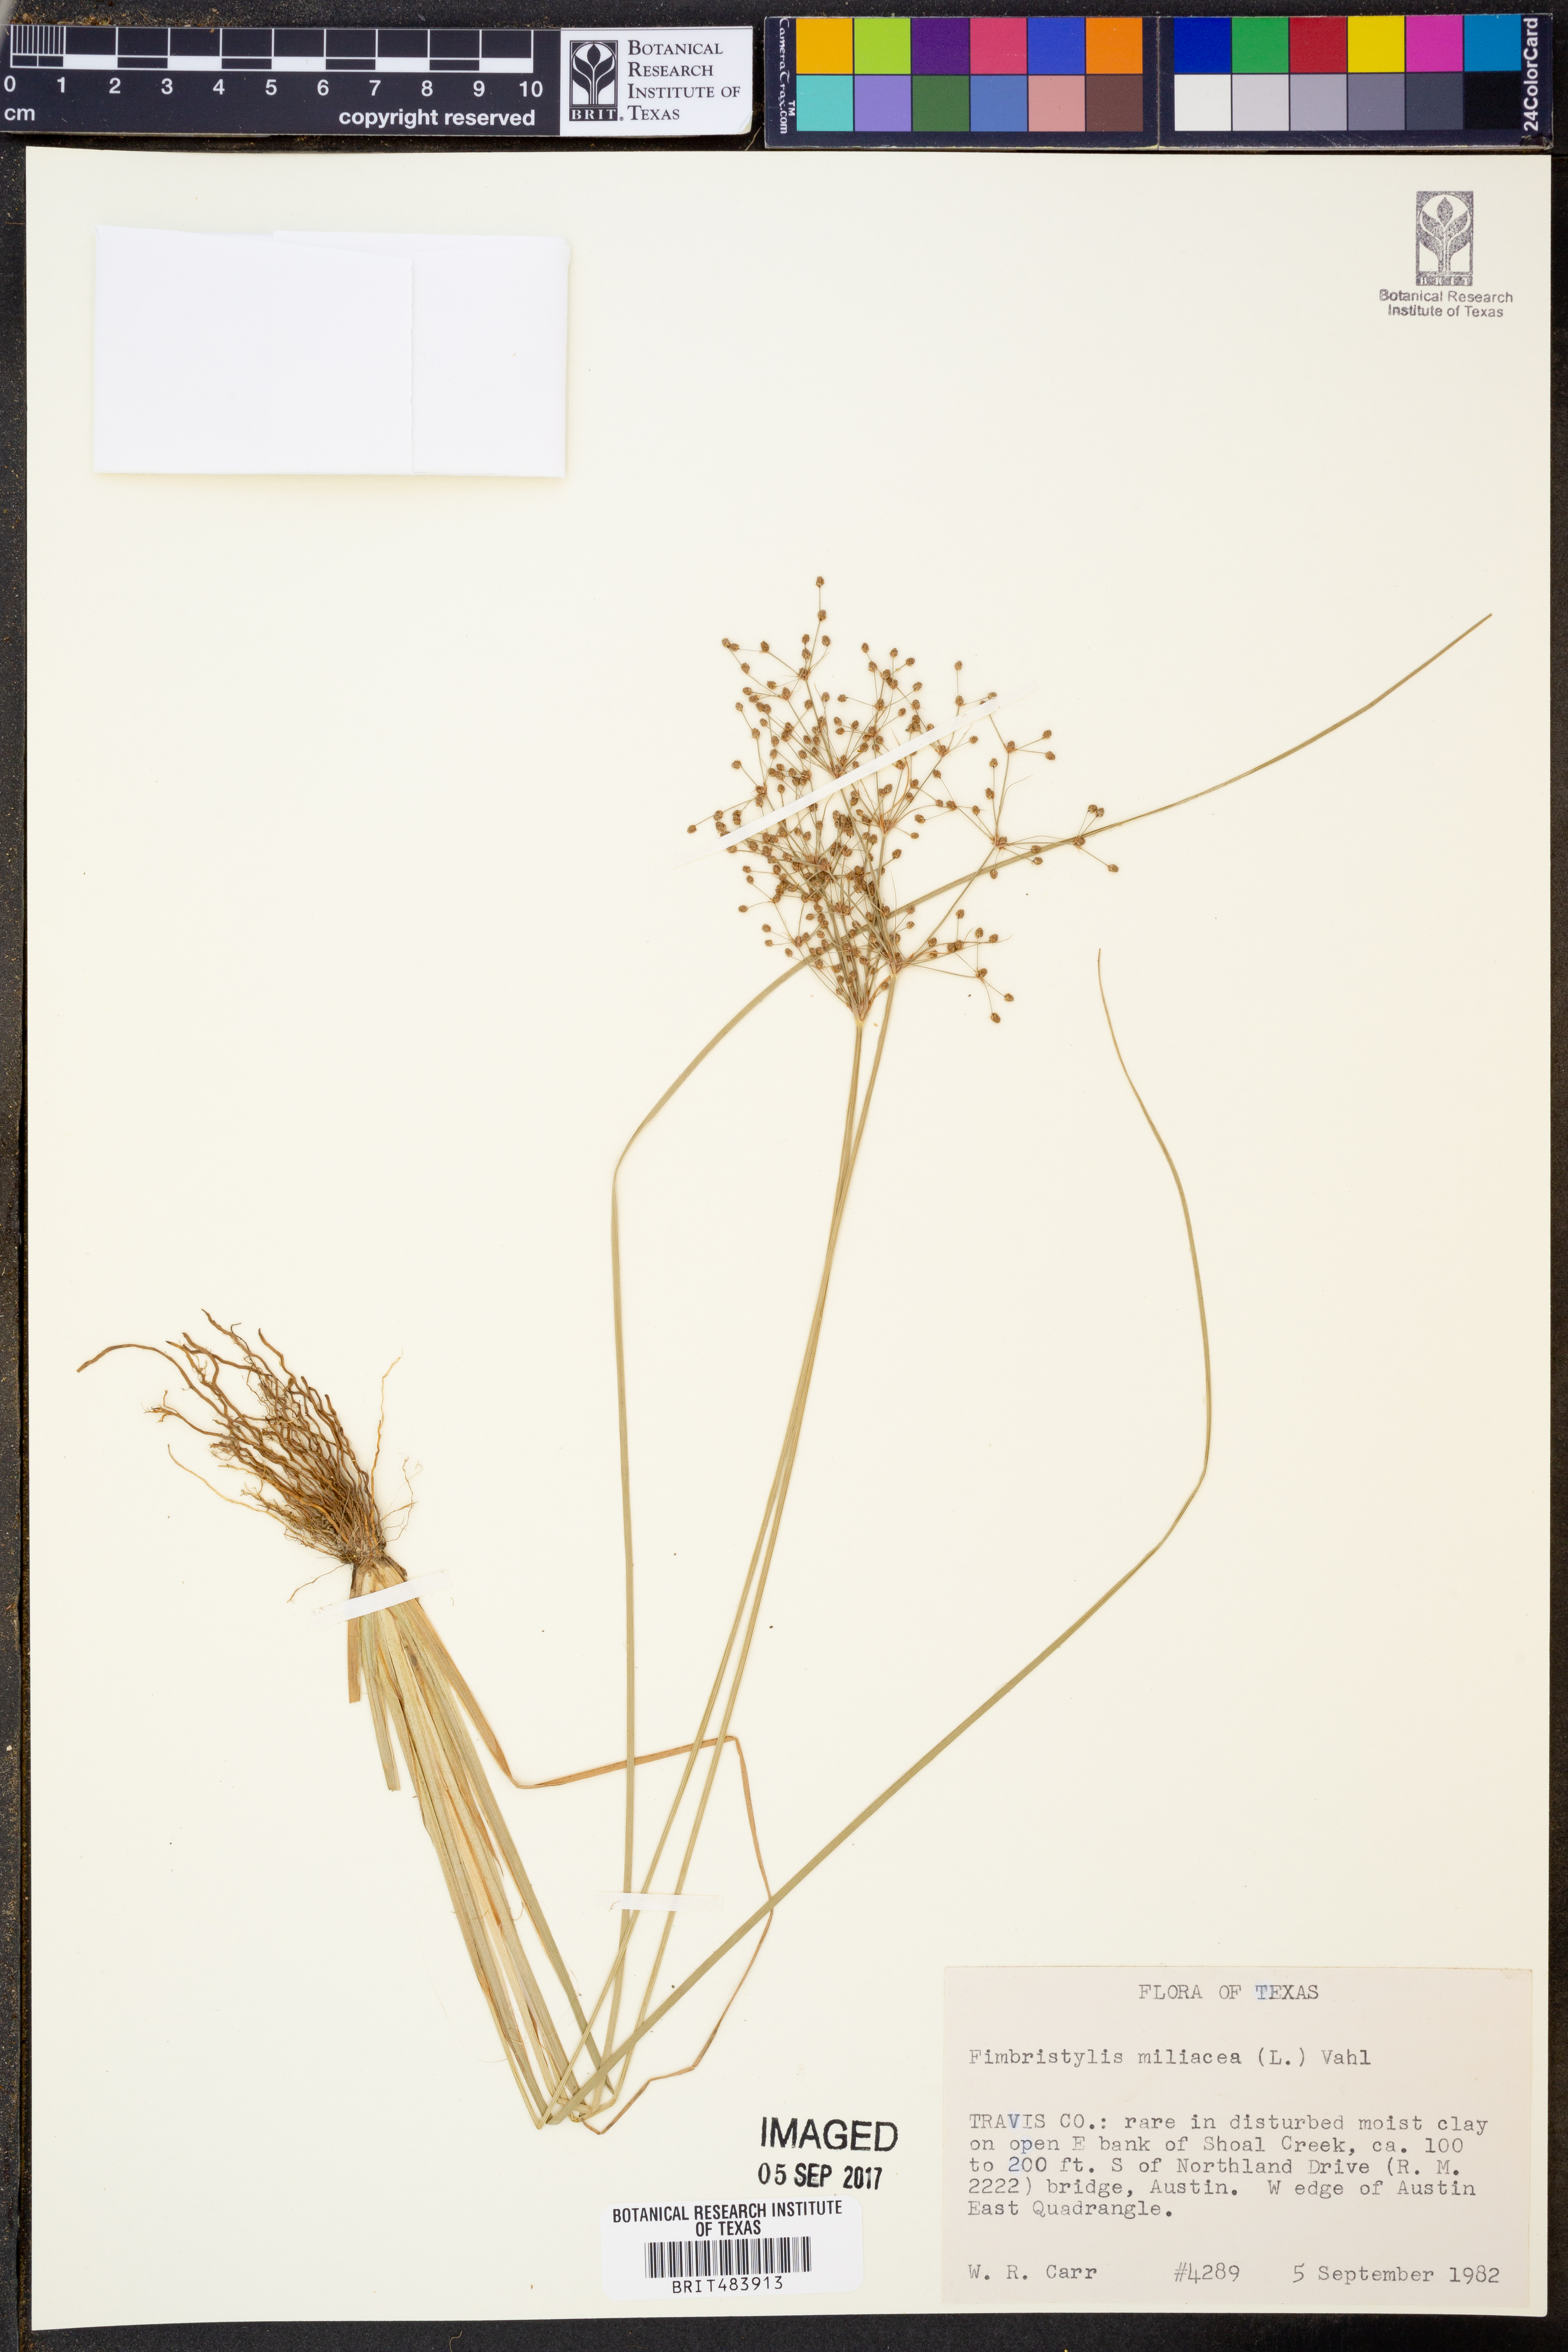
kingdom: Plantae
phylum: Tracheophyta
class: Liliopsida
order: Poales
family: Cyperaceae
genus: Fimbristylis
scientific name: Fimbristylis quinquangularis
